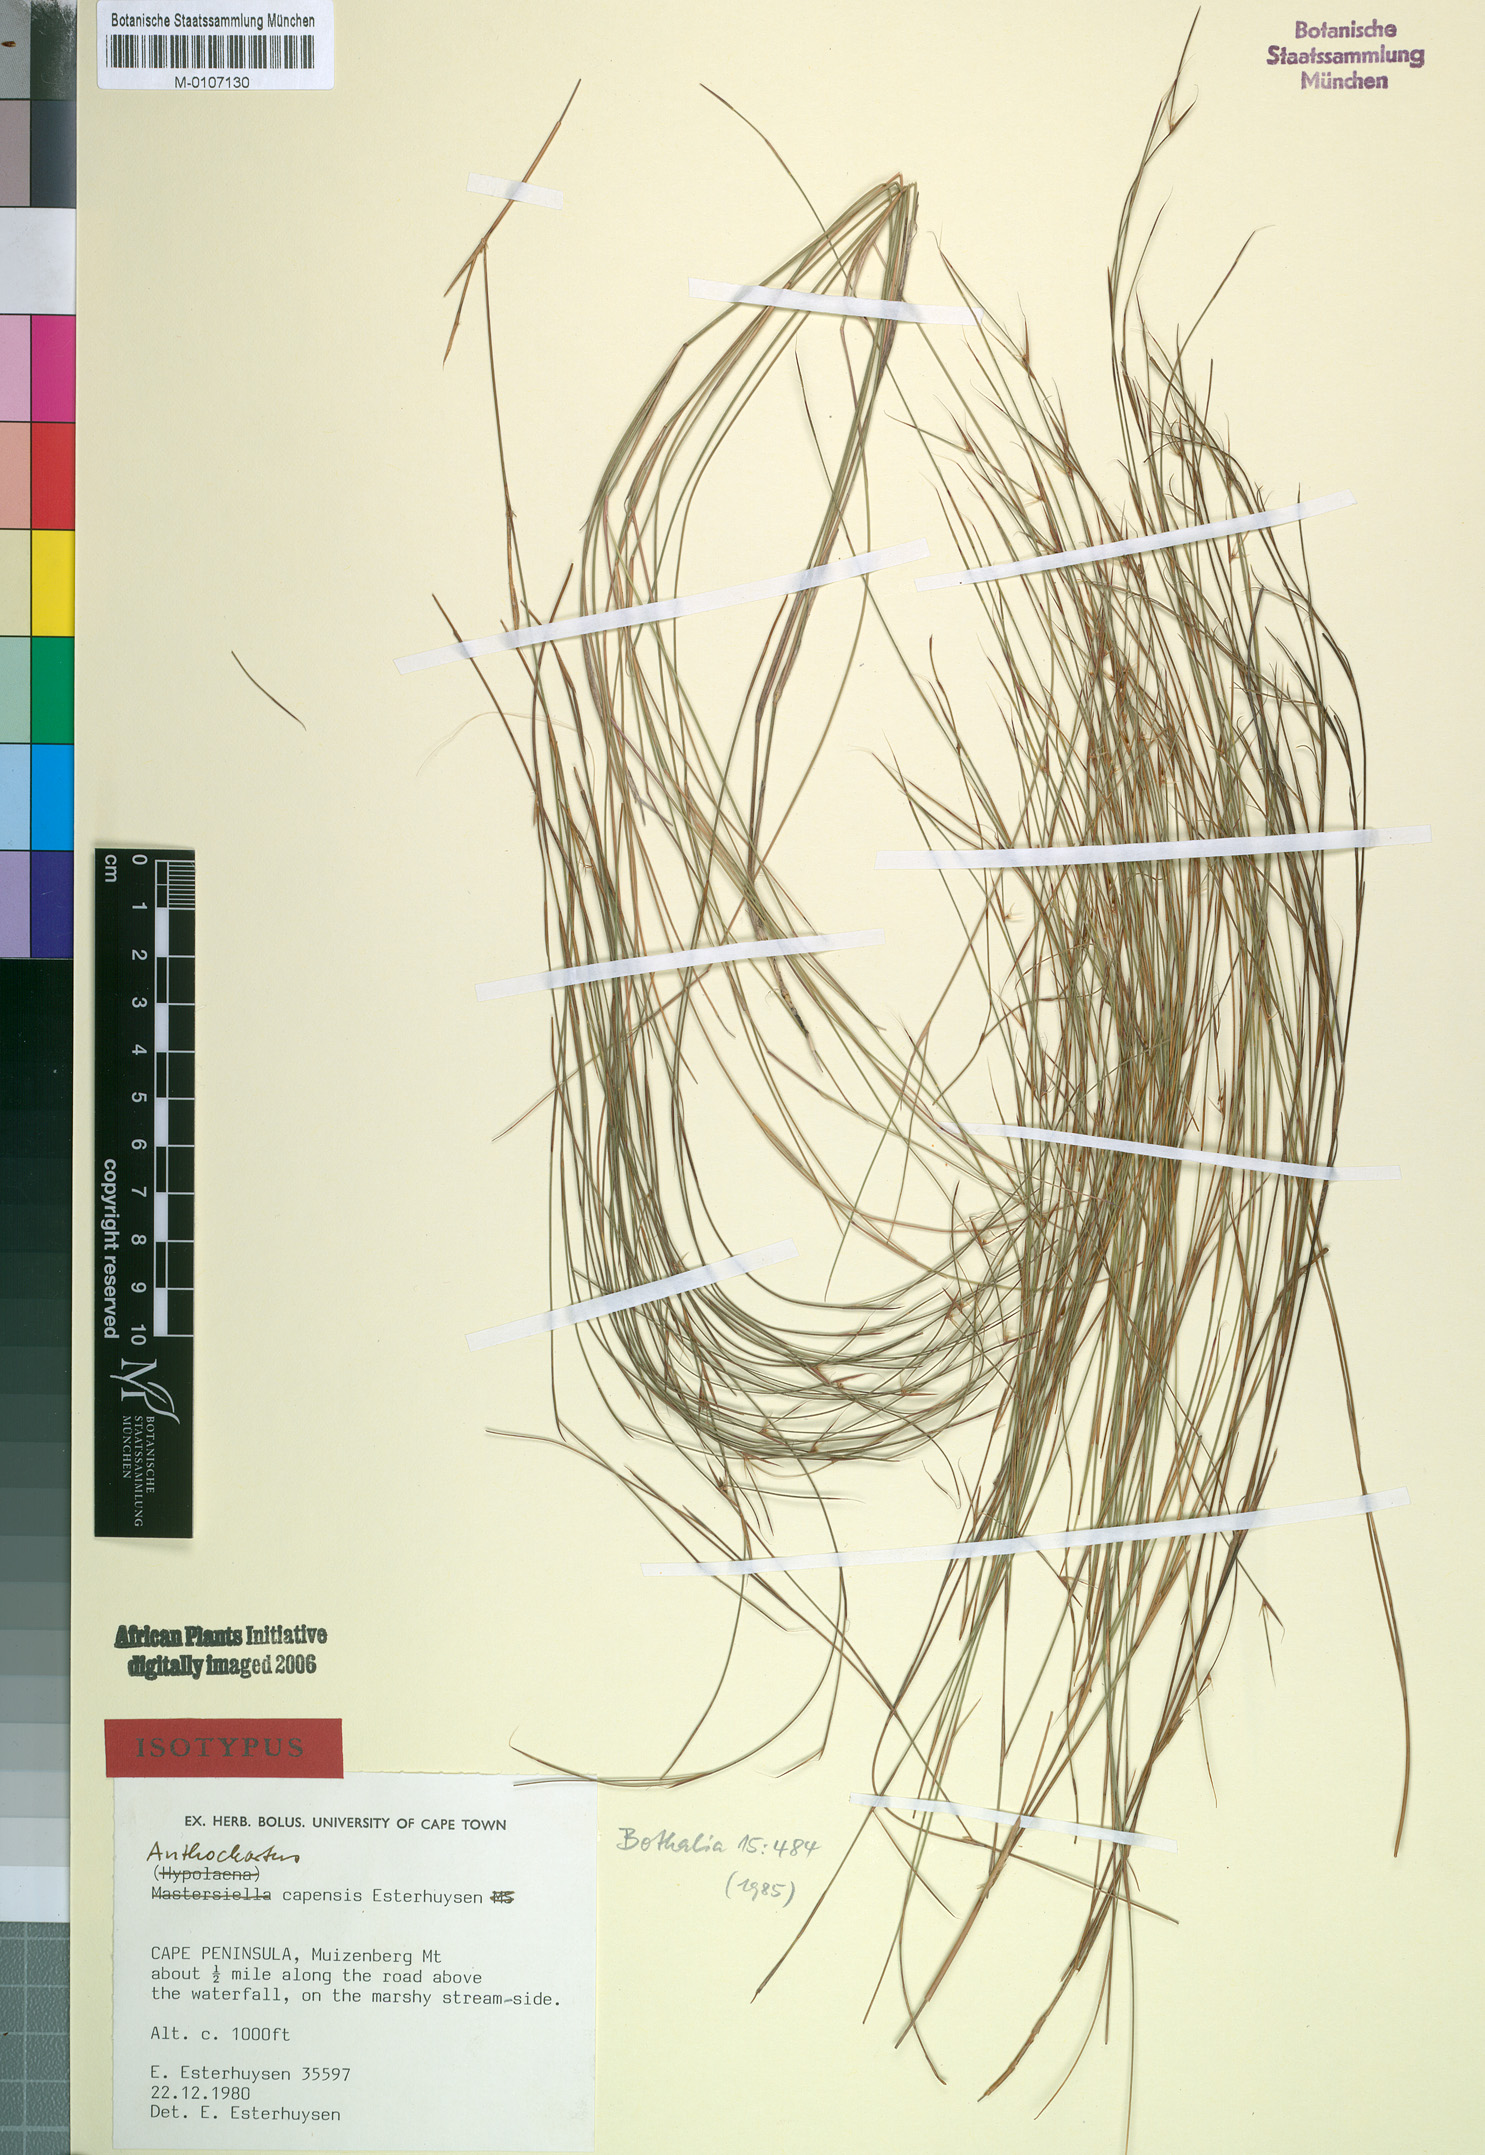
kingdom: Plantae
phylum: Tracheophyta
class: Liliopsida
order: Poales
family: Restionaceae
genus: Anthochortus
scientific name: Anthochortus capensis
